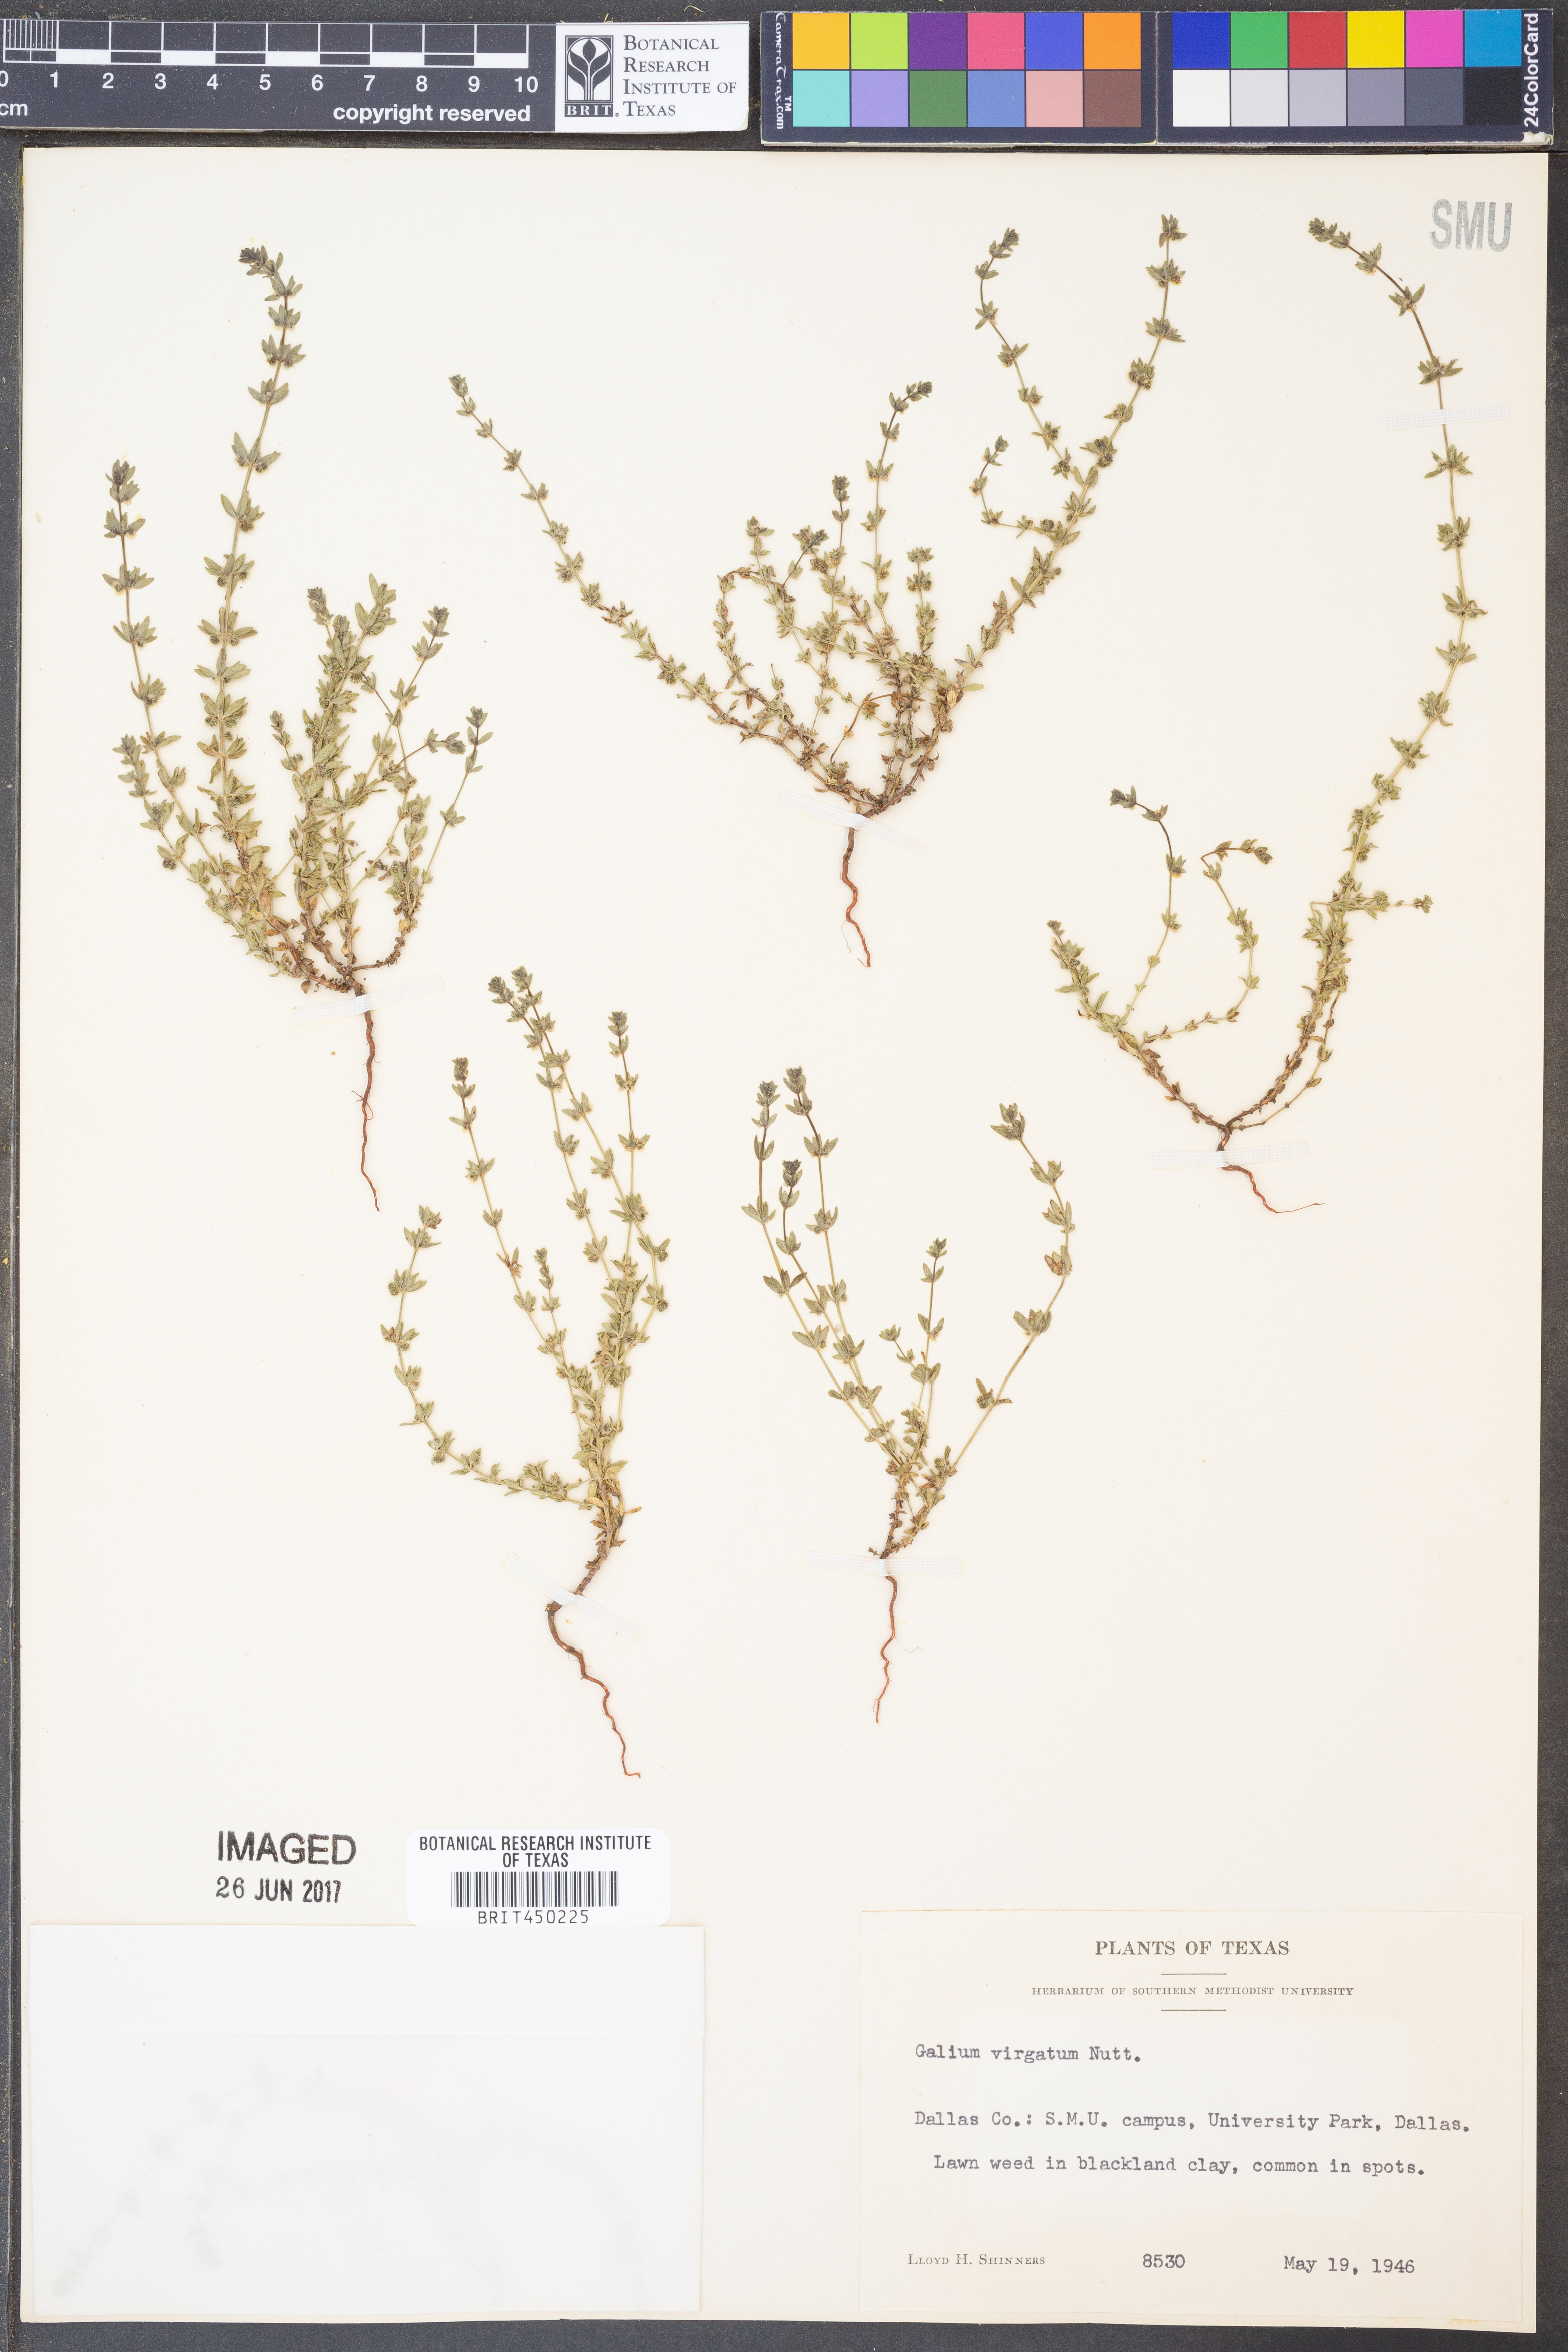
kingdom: Plantae
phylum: Tracheophyta
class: Magnoliopsida
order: Gentianales
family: Rubiaceae
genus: Galium
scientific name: Galium virgatum
